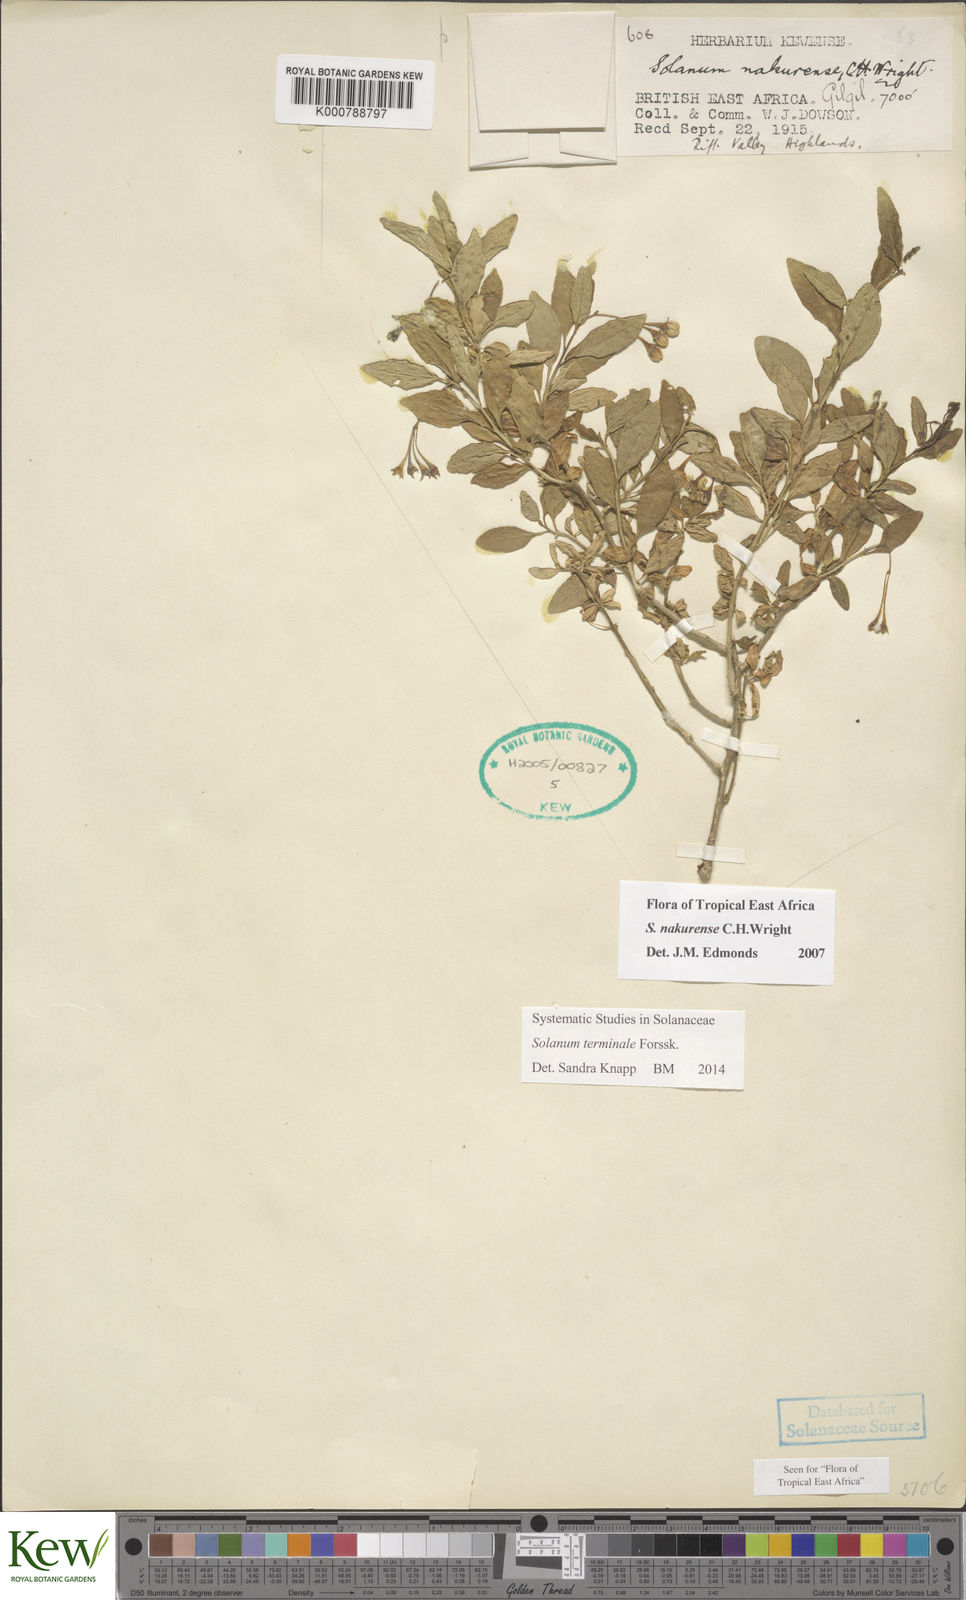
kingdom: Plantae
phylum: Tracheophyta
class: Magnoliopsida
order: Solanales
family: Solanaceae
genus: Solanum
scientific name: Solanum terminale
